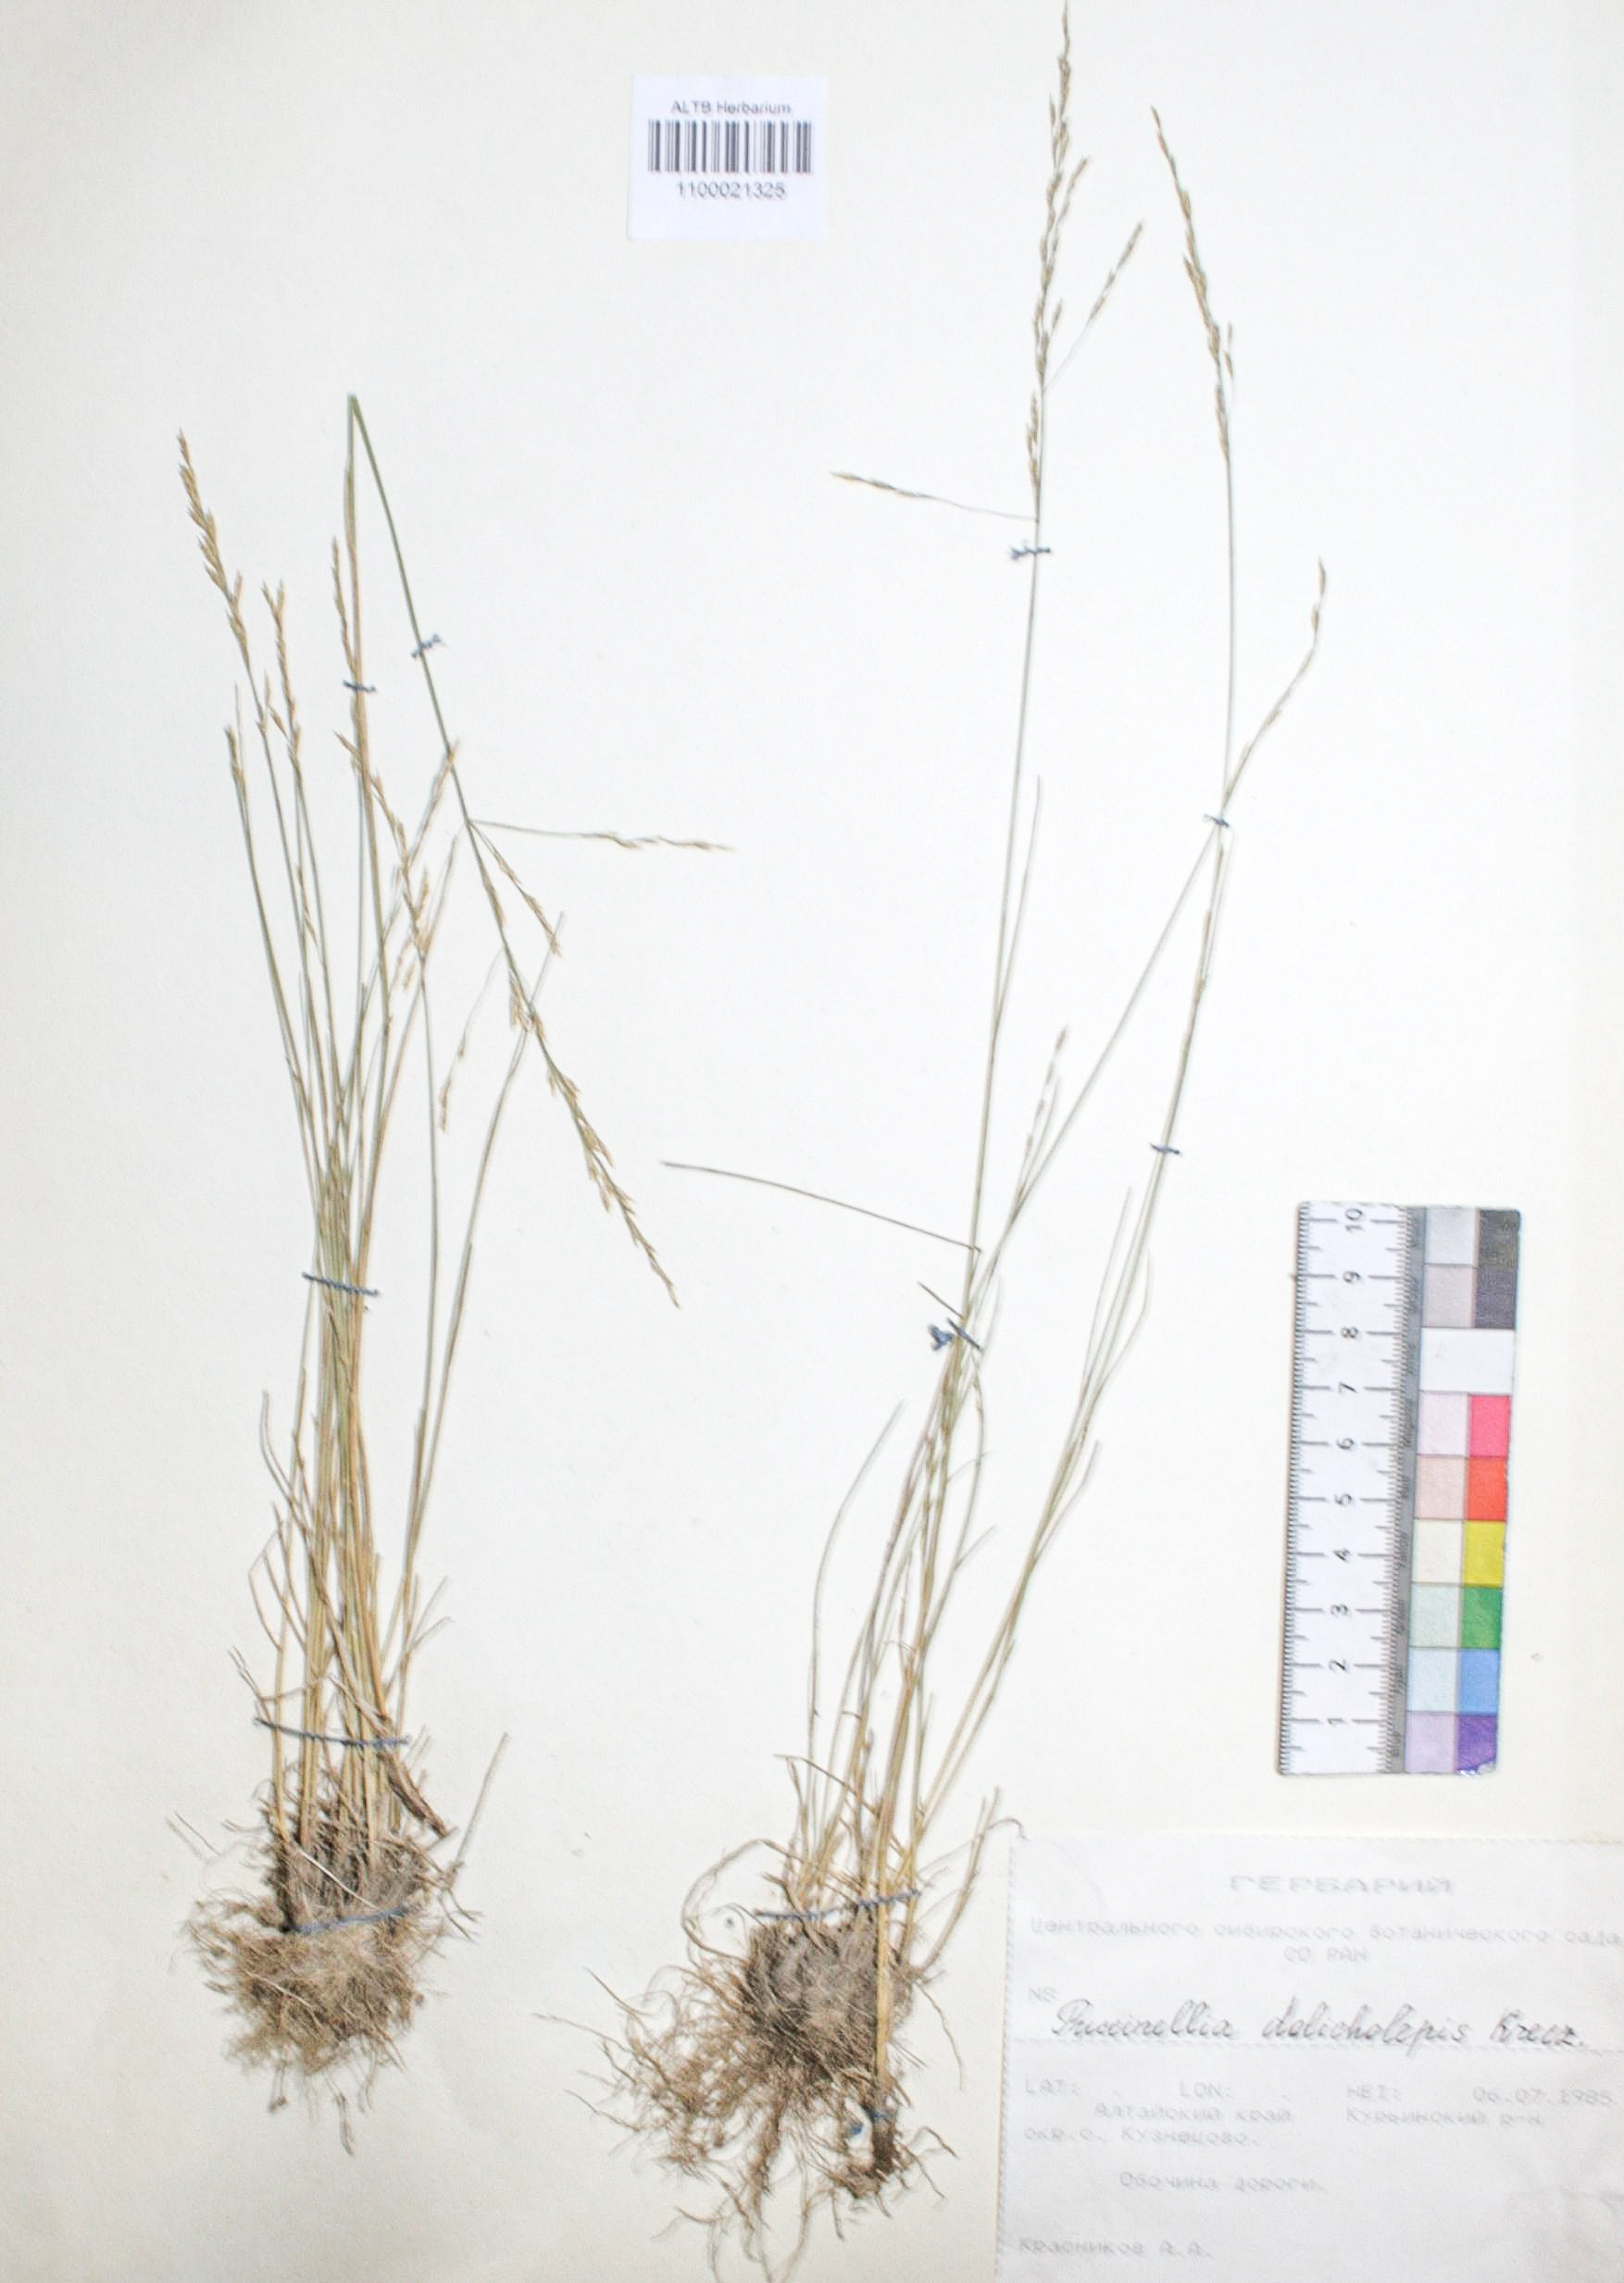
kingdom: Plantae
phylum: Tracheophyta
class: Liliopsida
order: Poales
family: Poaceae
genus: Puccinellia
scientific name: Puccinellia dolicholepis
